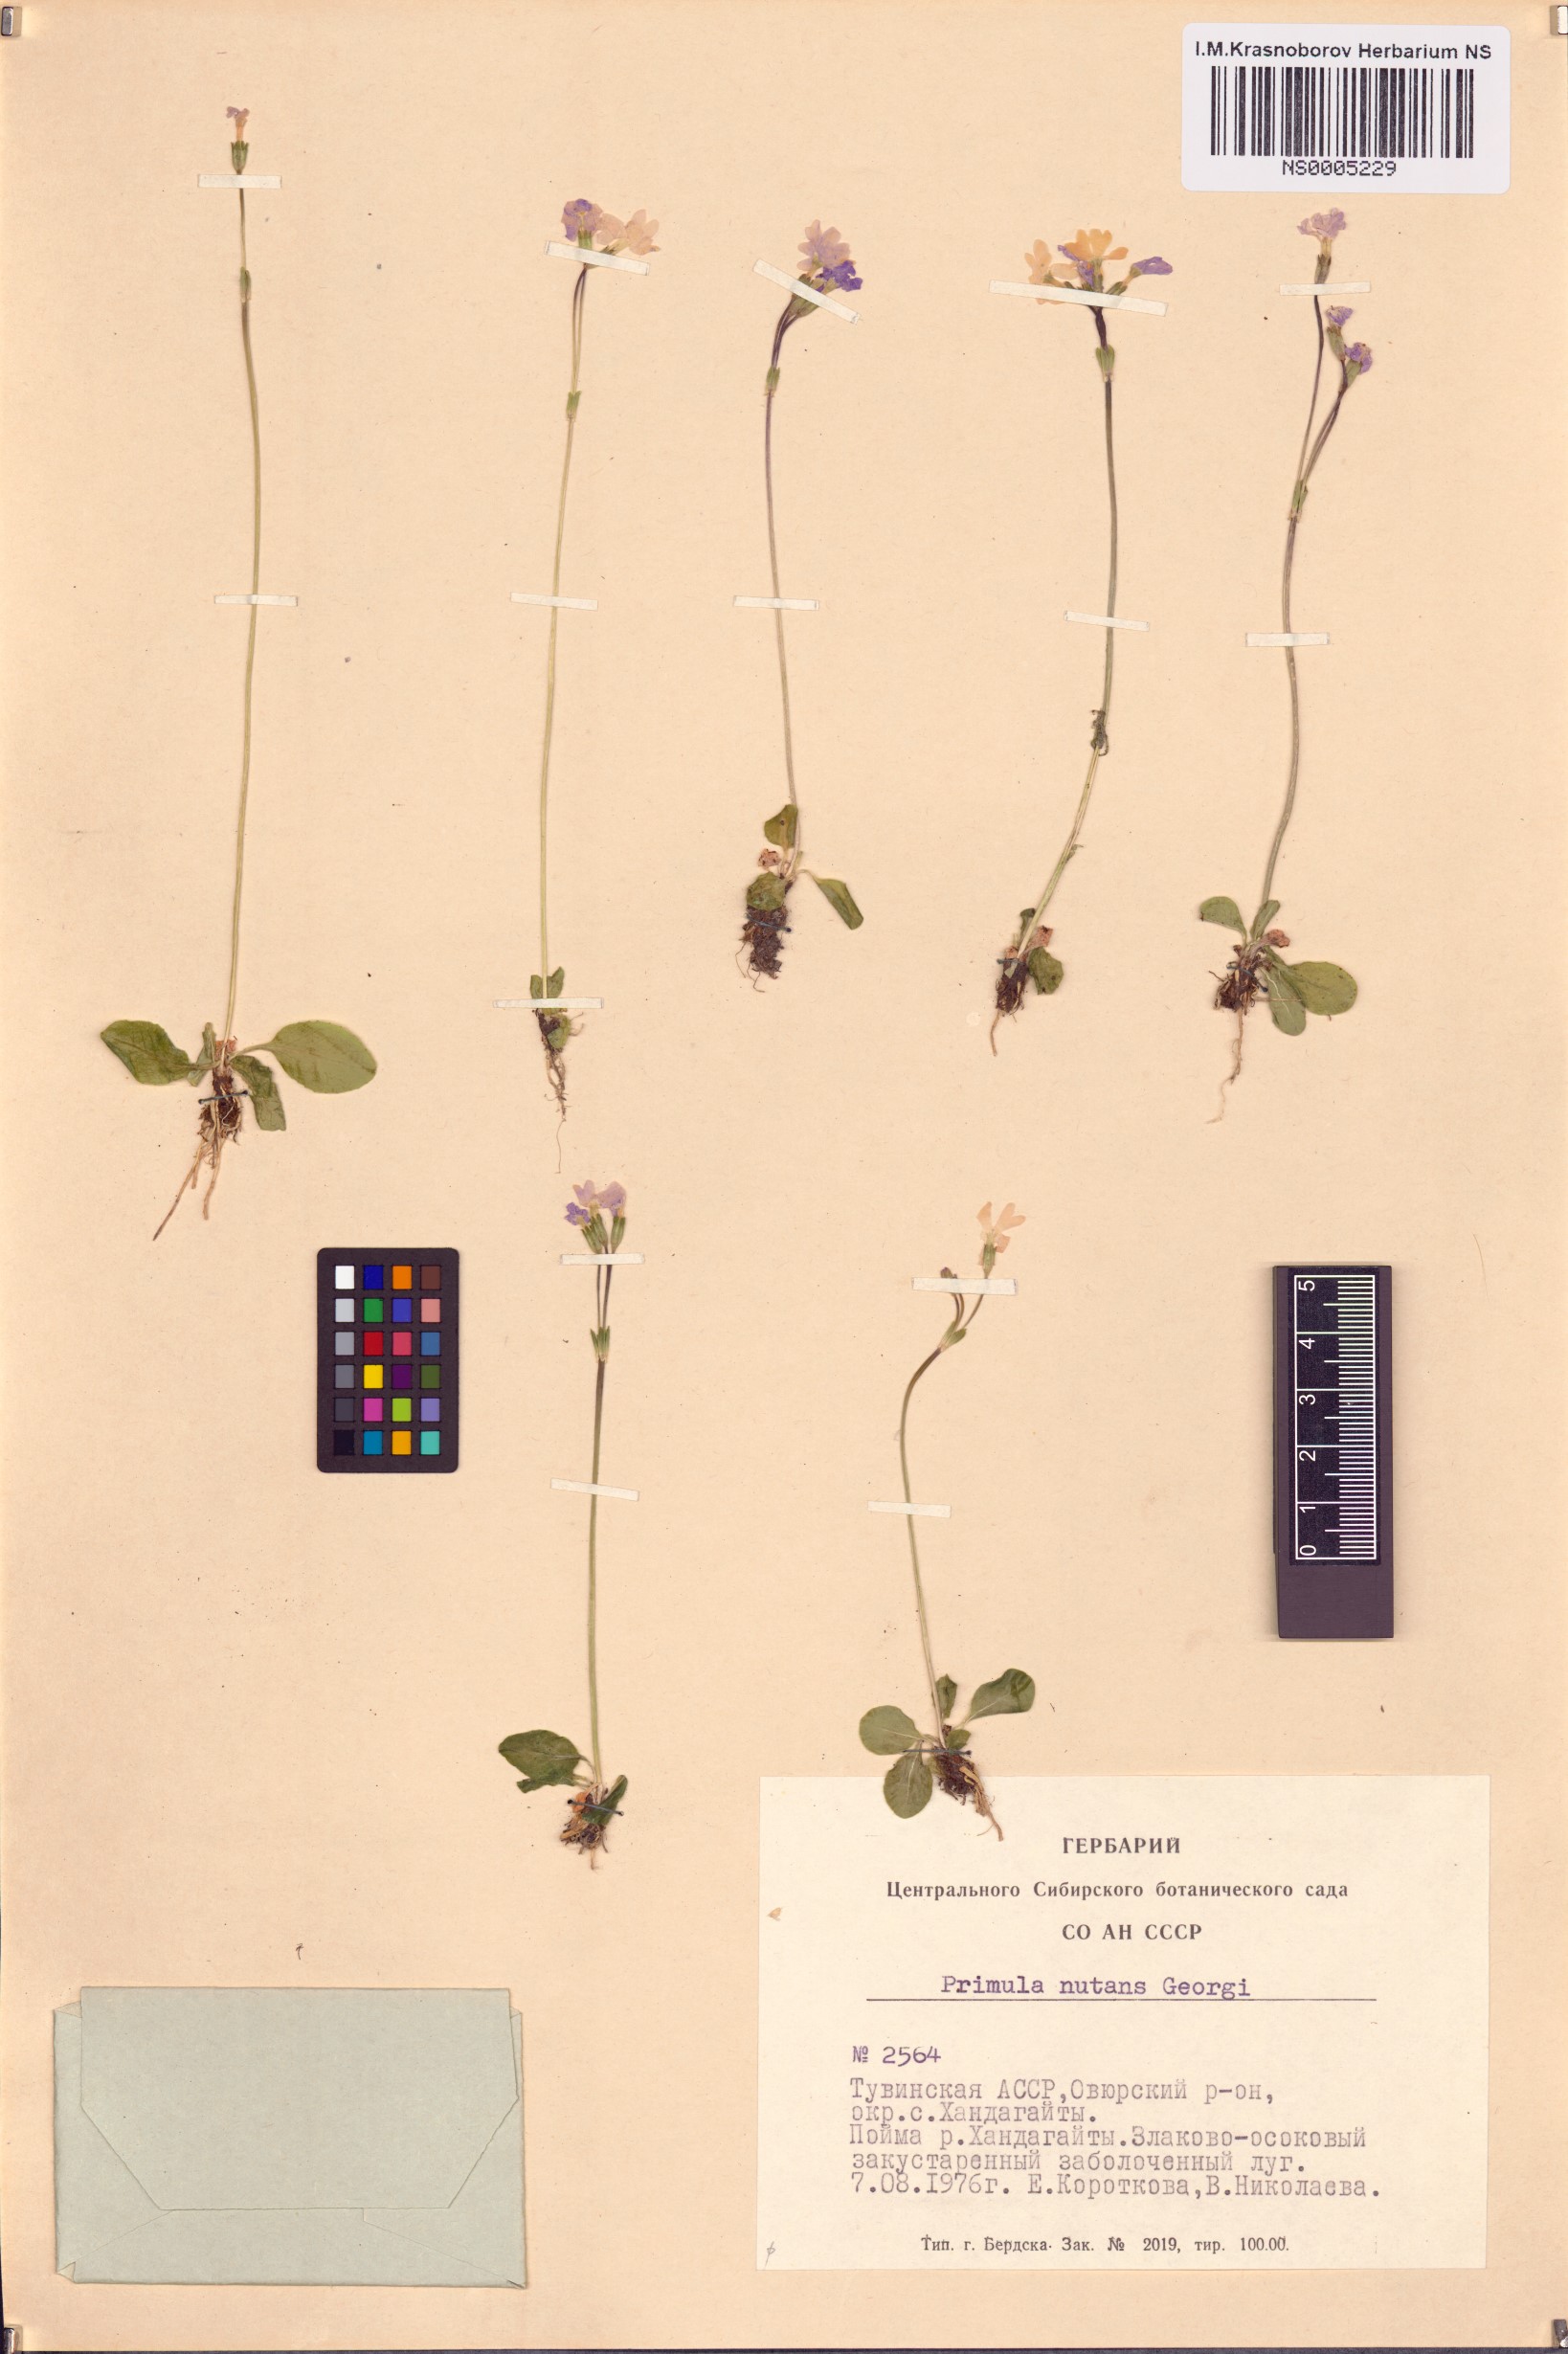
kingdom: Plantae
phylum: Tracheophyta
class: Magnoliopsida
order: Ericales
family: Primulaceae
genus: Primula
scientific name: Primula nutans
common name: Siberian primrose
